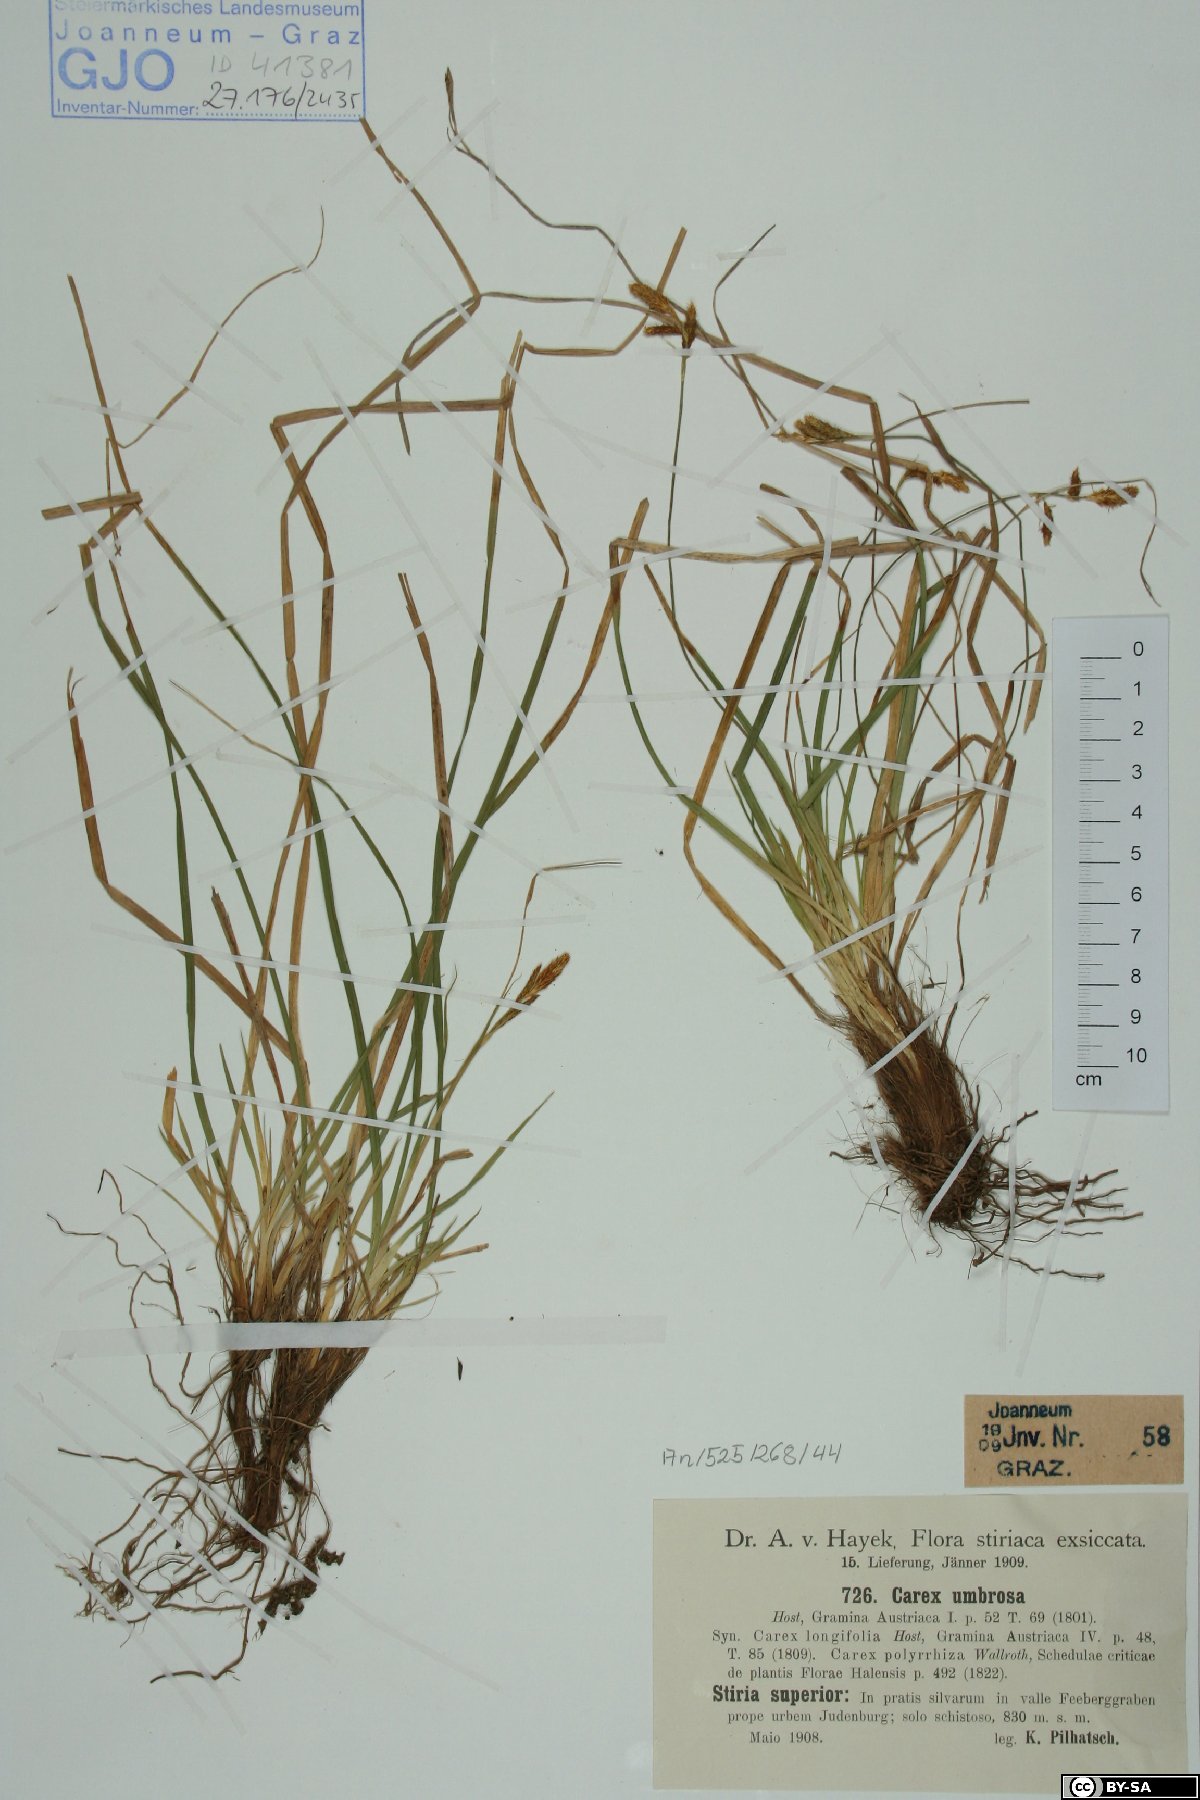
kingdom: Plantae
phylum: Tracheophyta
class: Liliopsida
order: Poales
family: Cyperaceae
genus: Carex
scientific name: Carex umbrosa
